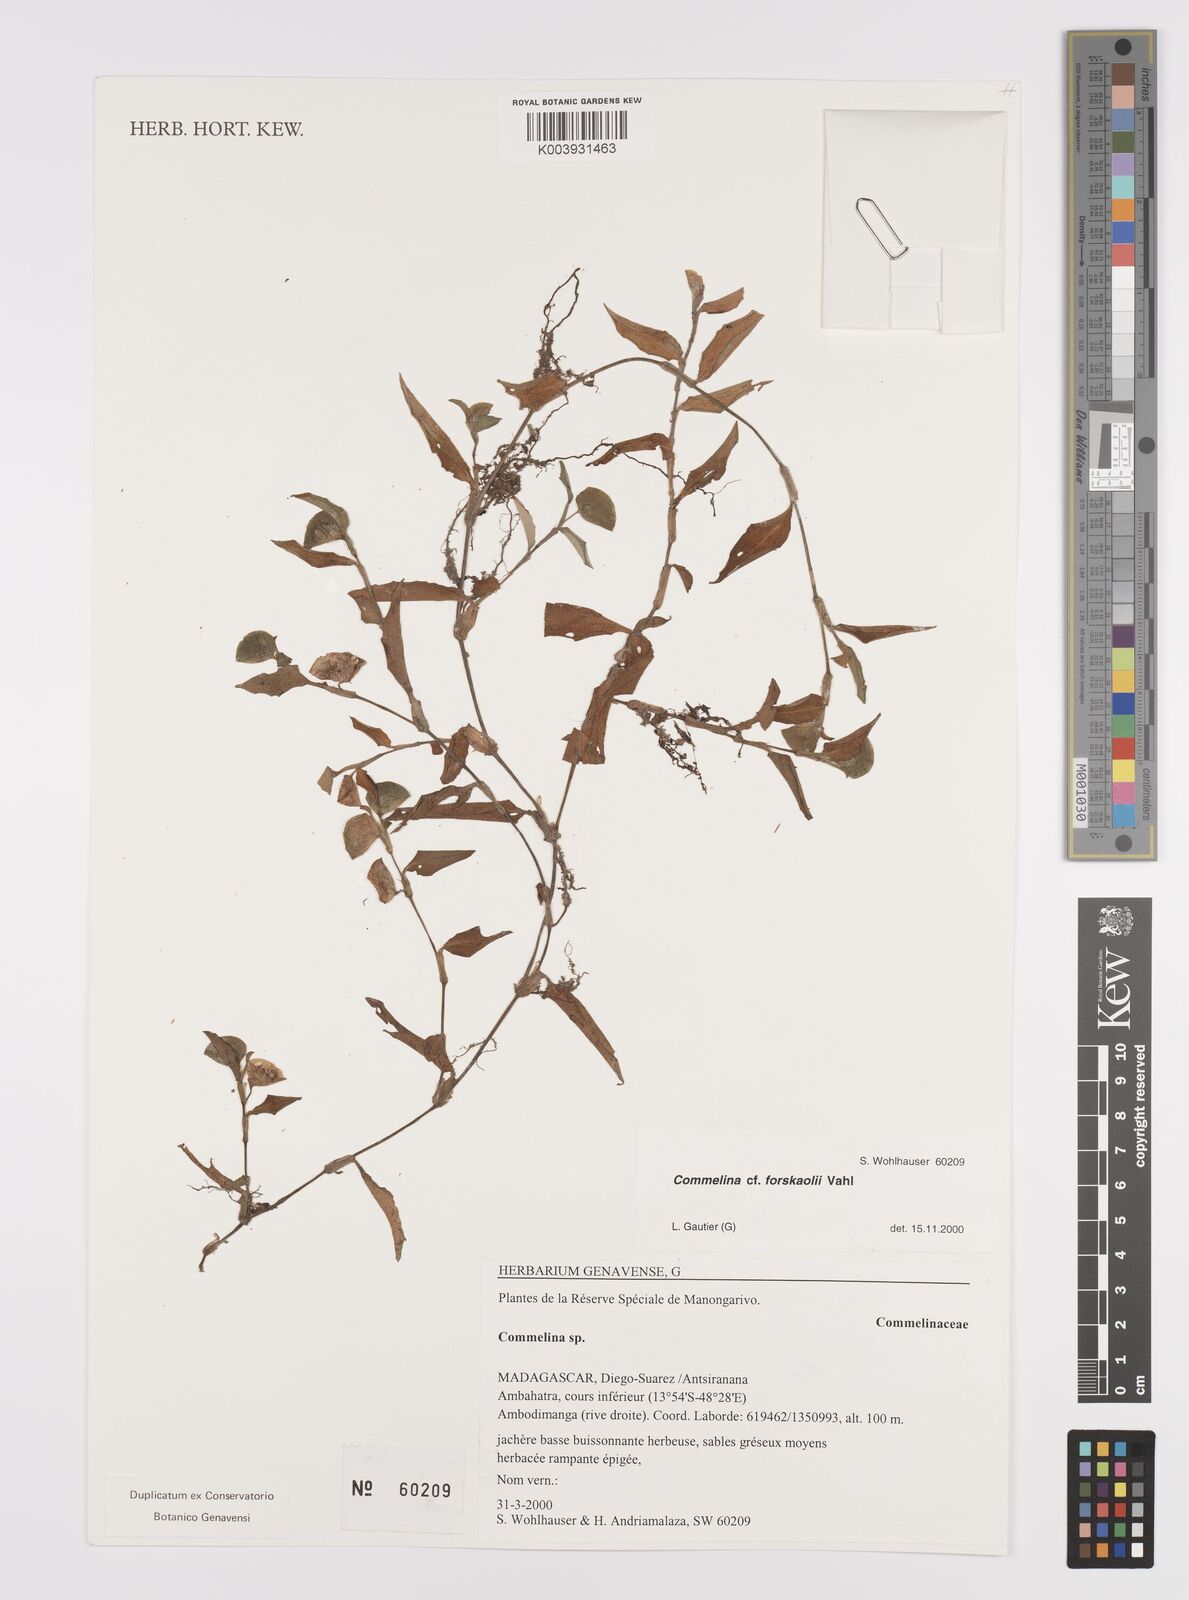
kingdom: Plantae
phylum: Tracheophyta
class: Liliopsida
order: Commelinales
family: Commelinaceae
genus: Commelina
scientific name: Commelina forskaolii
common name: Rat's ear
